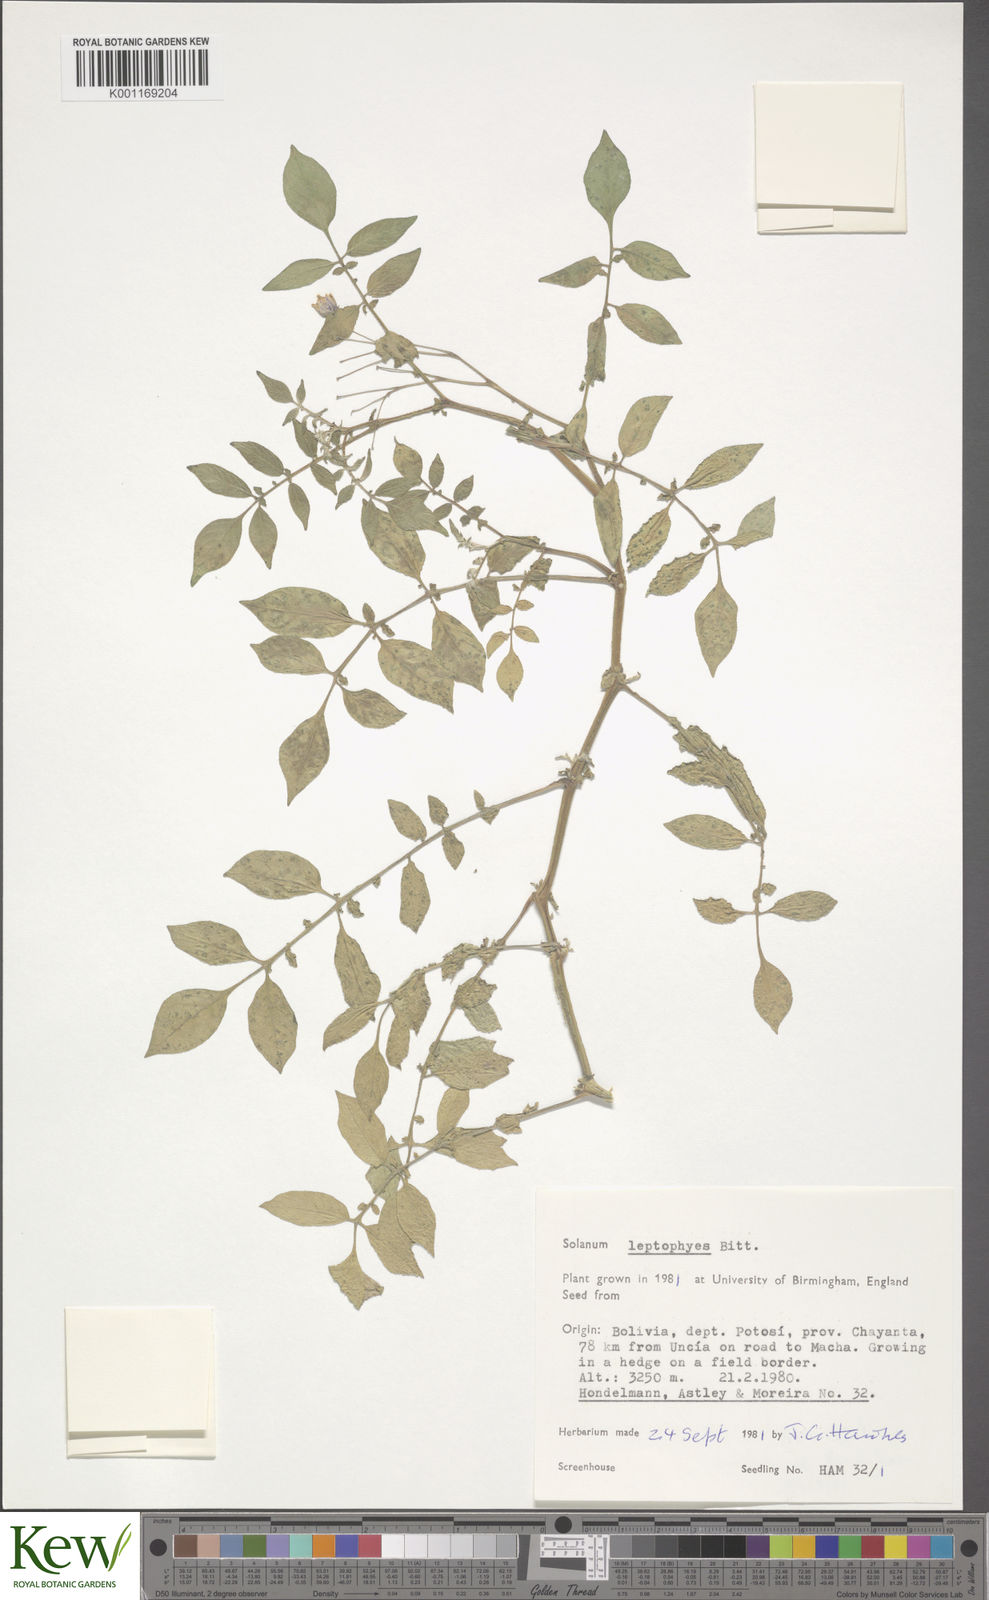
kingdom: Plantae
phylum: Tracheophyta
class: Magnoliopsida
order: Solanales
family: Solanaceae
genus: Solanum
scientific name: Solanum brevicaule
